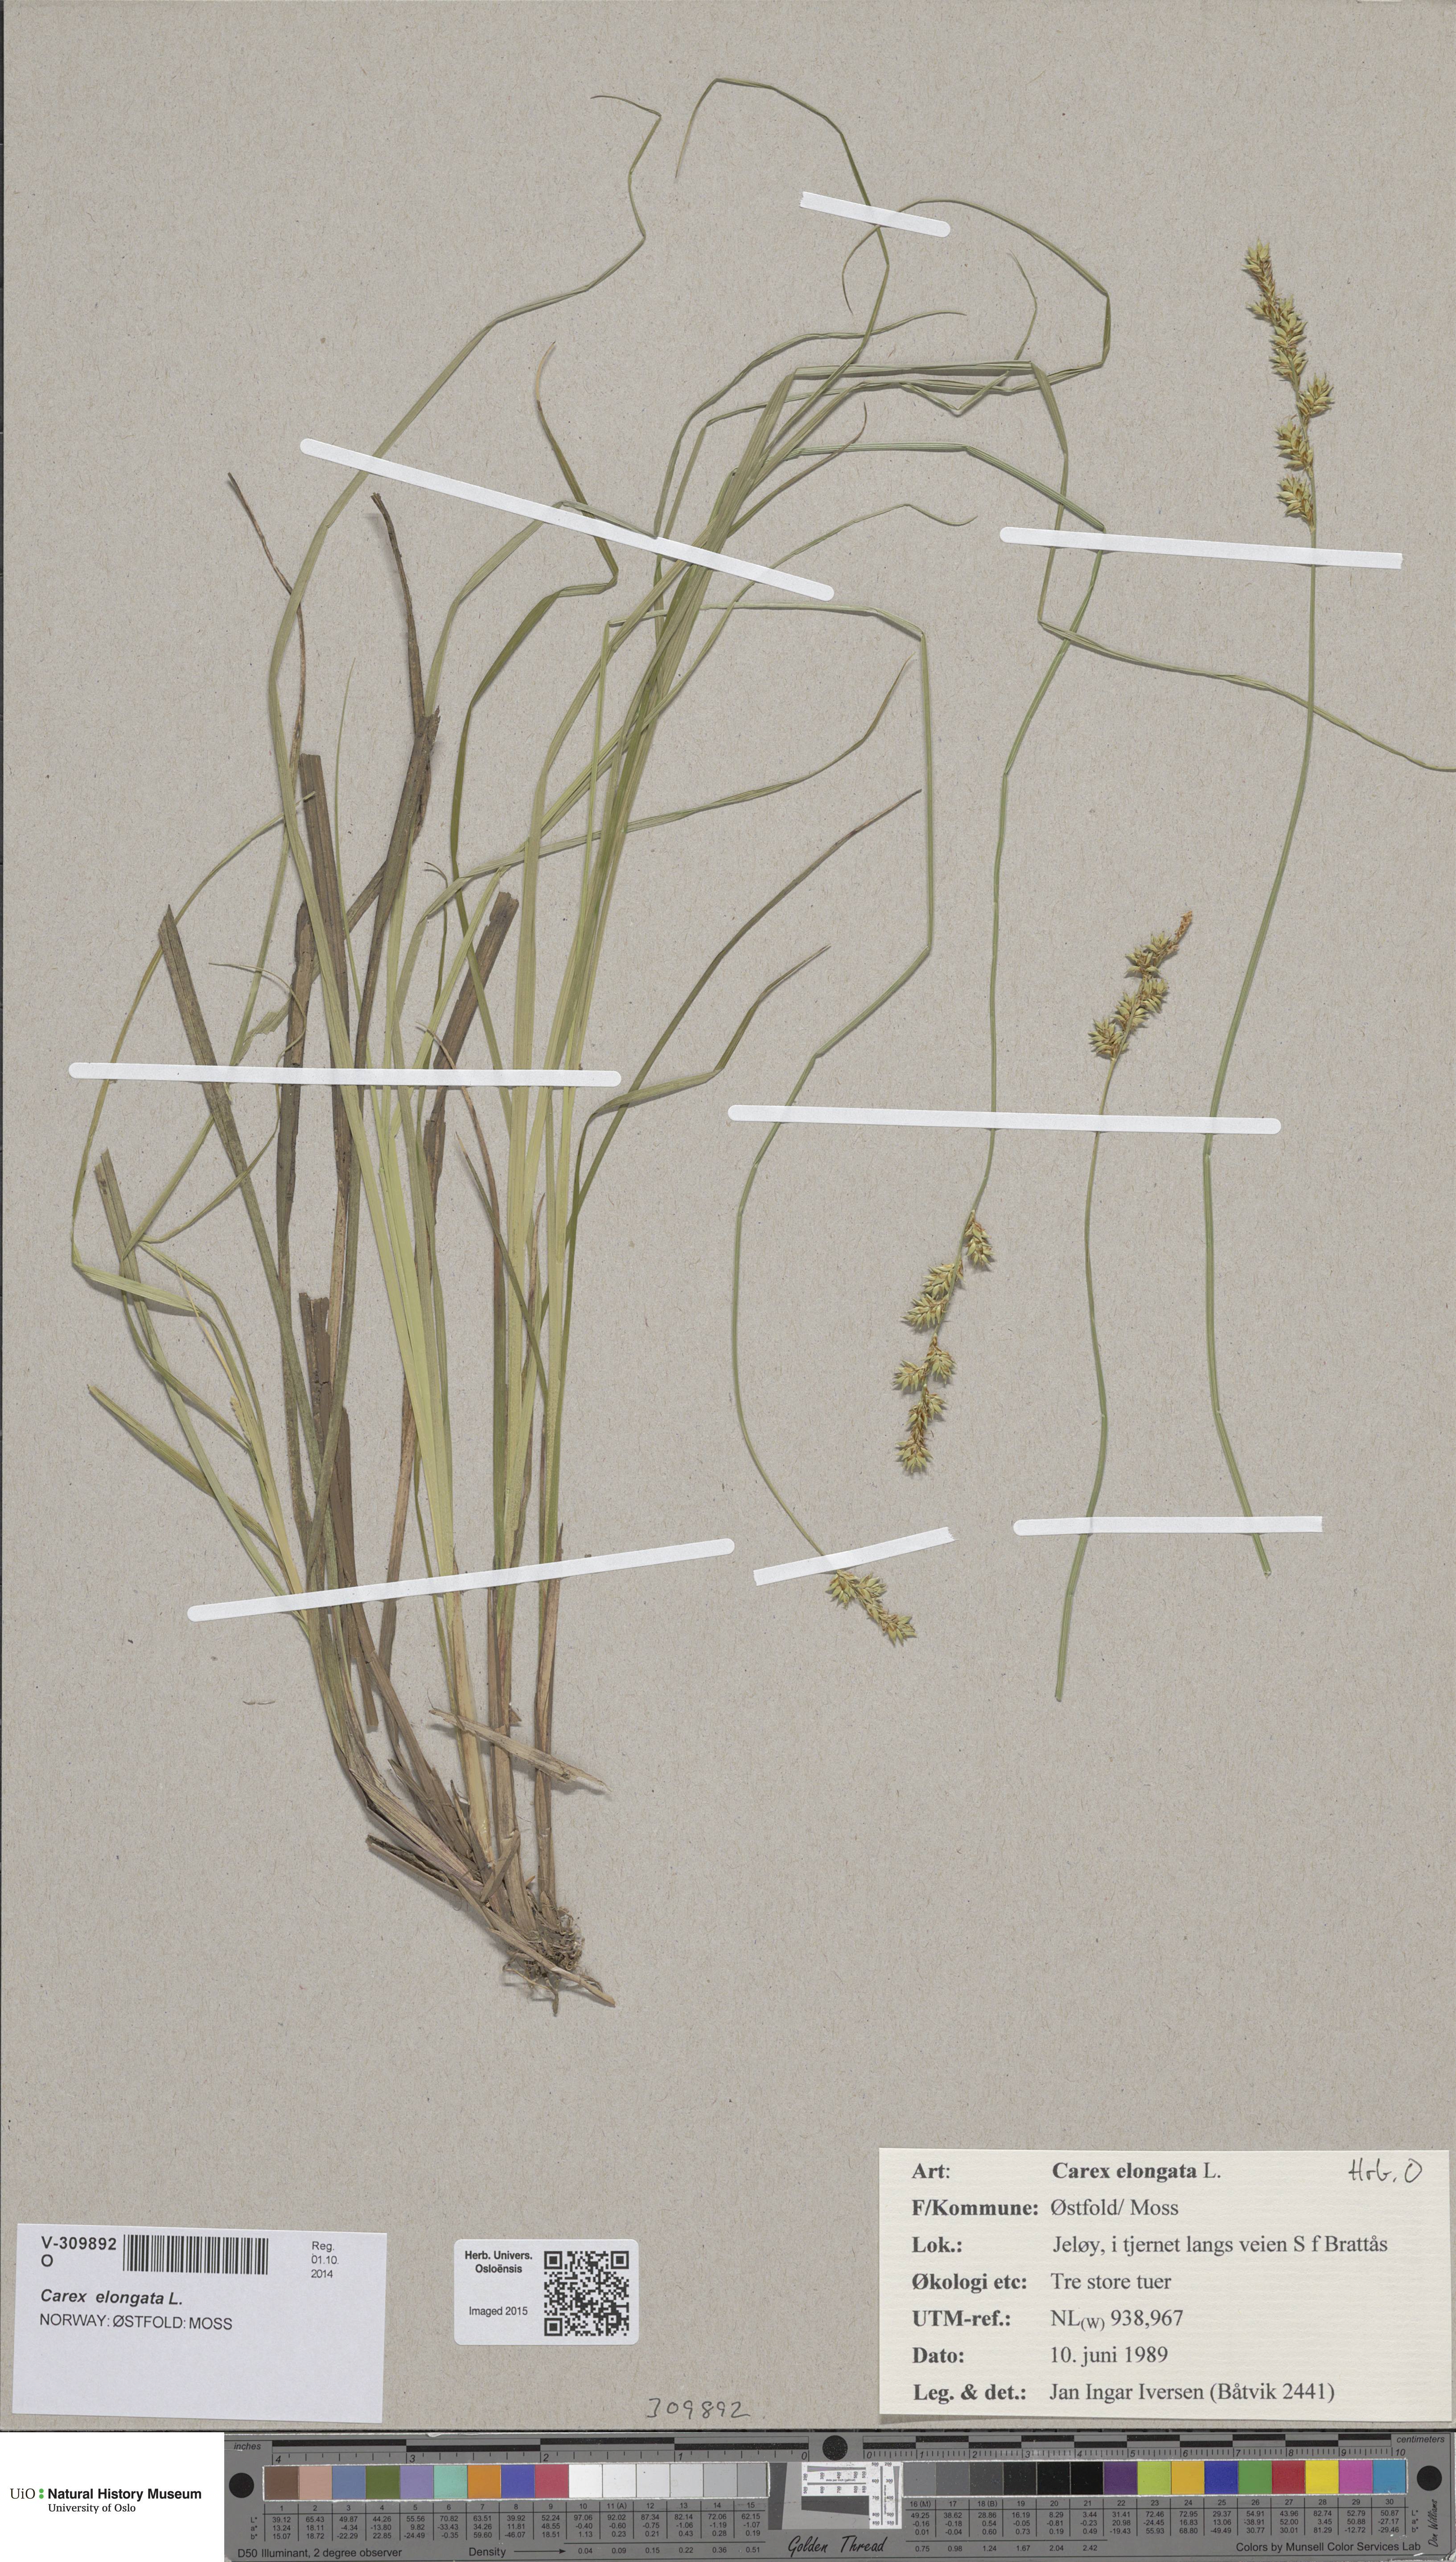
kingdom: Plantae
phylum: Tracheophyta
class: Liliopsida
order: Poales
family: Cyperaceae
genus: Carex
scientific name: Carex elongata
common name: Elongated sedge
